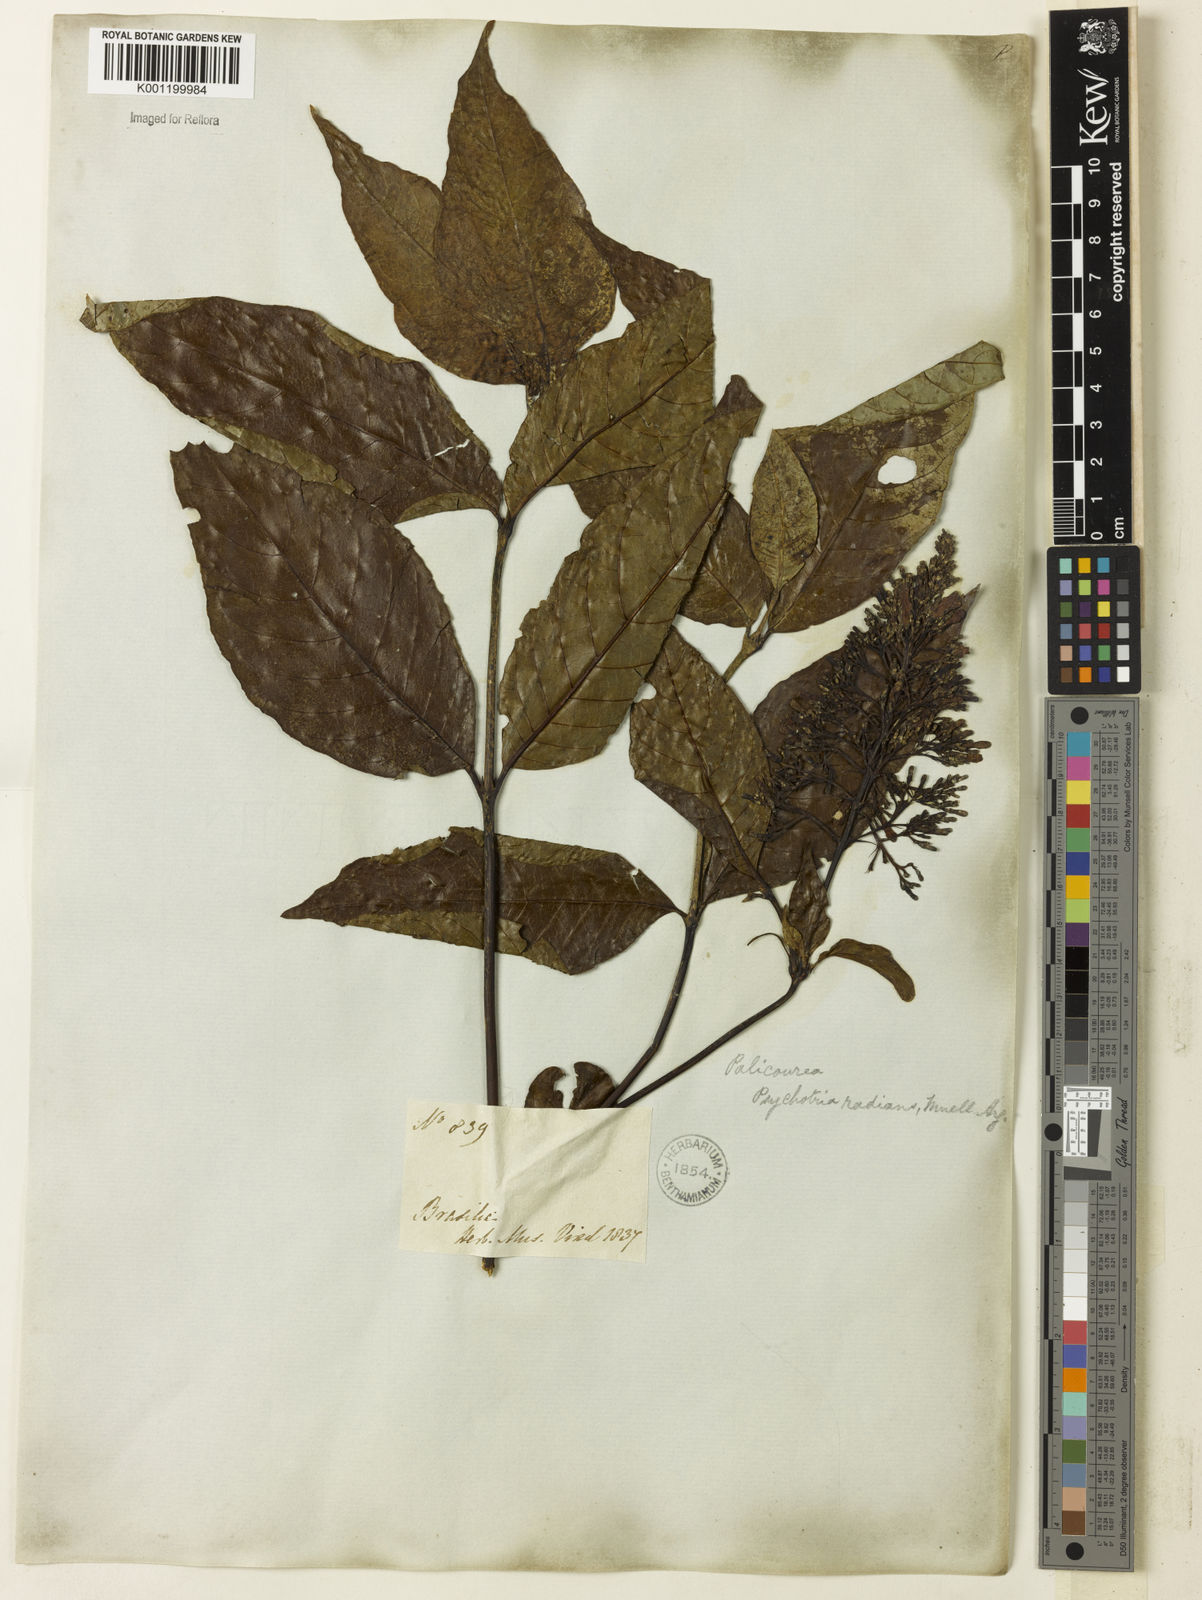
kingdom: Plantae
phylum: Tracheophyta
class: Magnoliopsida
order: Gentianales
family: Rubiaceae
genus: Palicourea
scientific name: Palicourea
